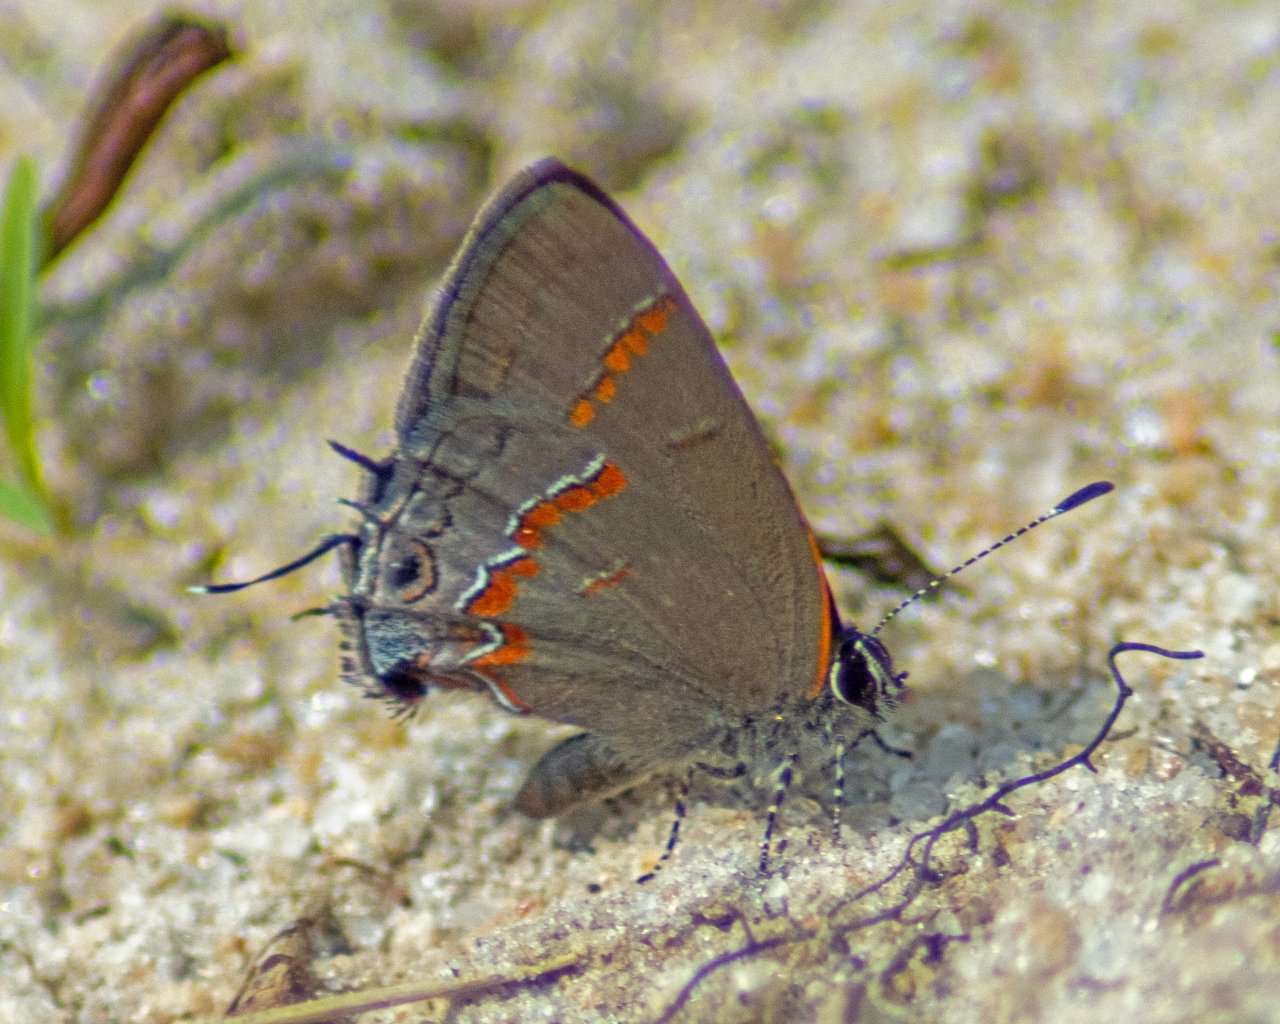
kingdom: Animalia
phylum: Arthropoda
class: Insecta
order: Lepidoptera
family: Lycaenidae
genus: Calycopis
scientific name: Calycopis cecrops
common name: Red-banded Hairstreak
